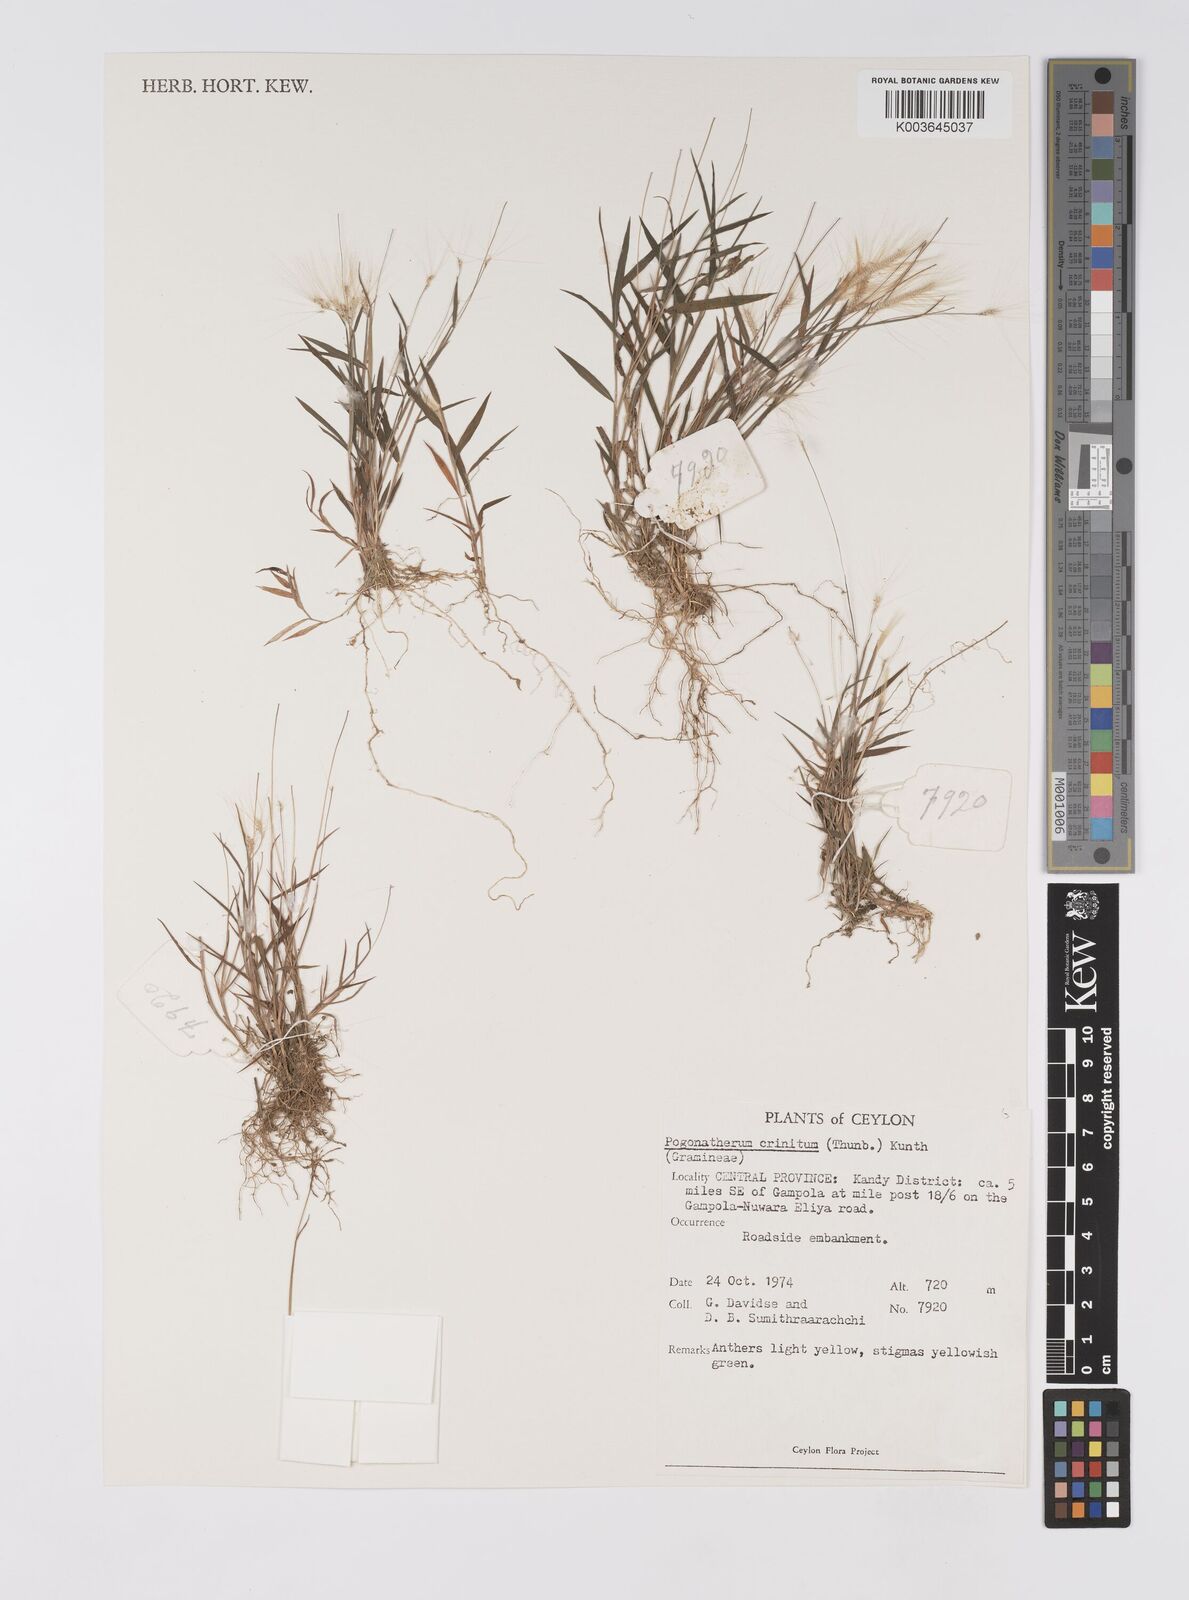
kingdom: Plantae
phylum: Tracheophyta
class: Liliopsida
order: Poales
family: Poaceae
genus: Pogonatherum
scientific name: Pogonatherum crinitum
